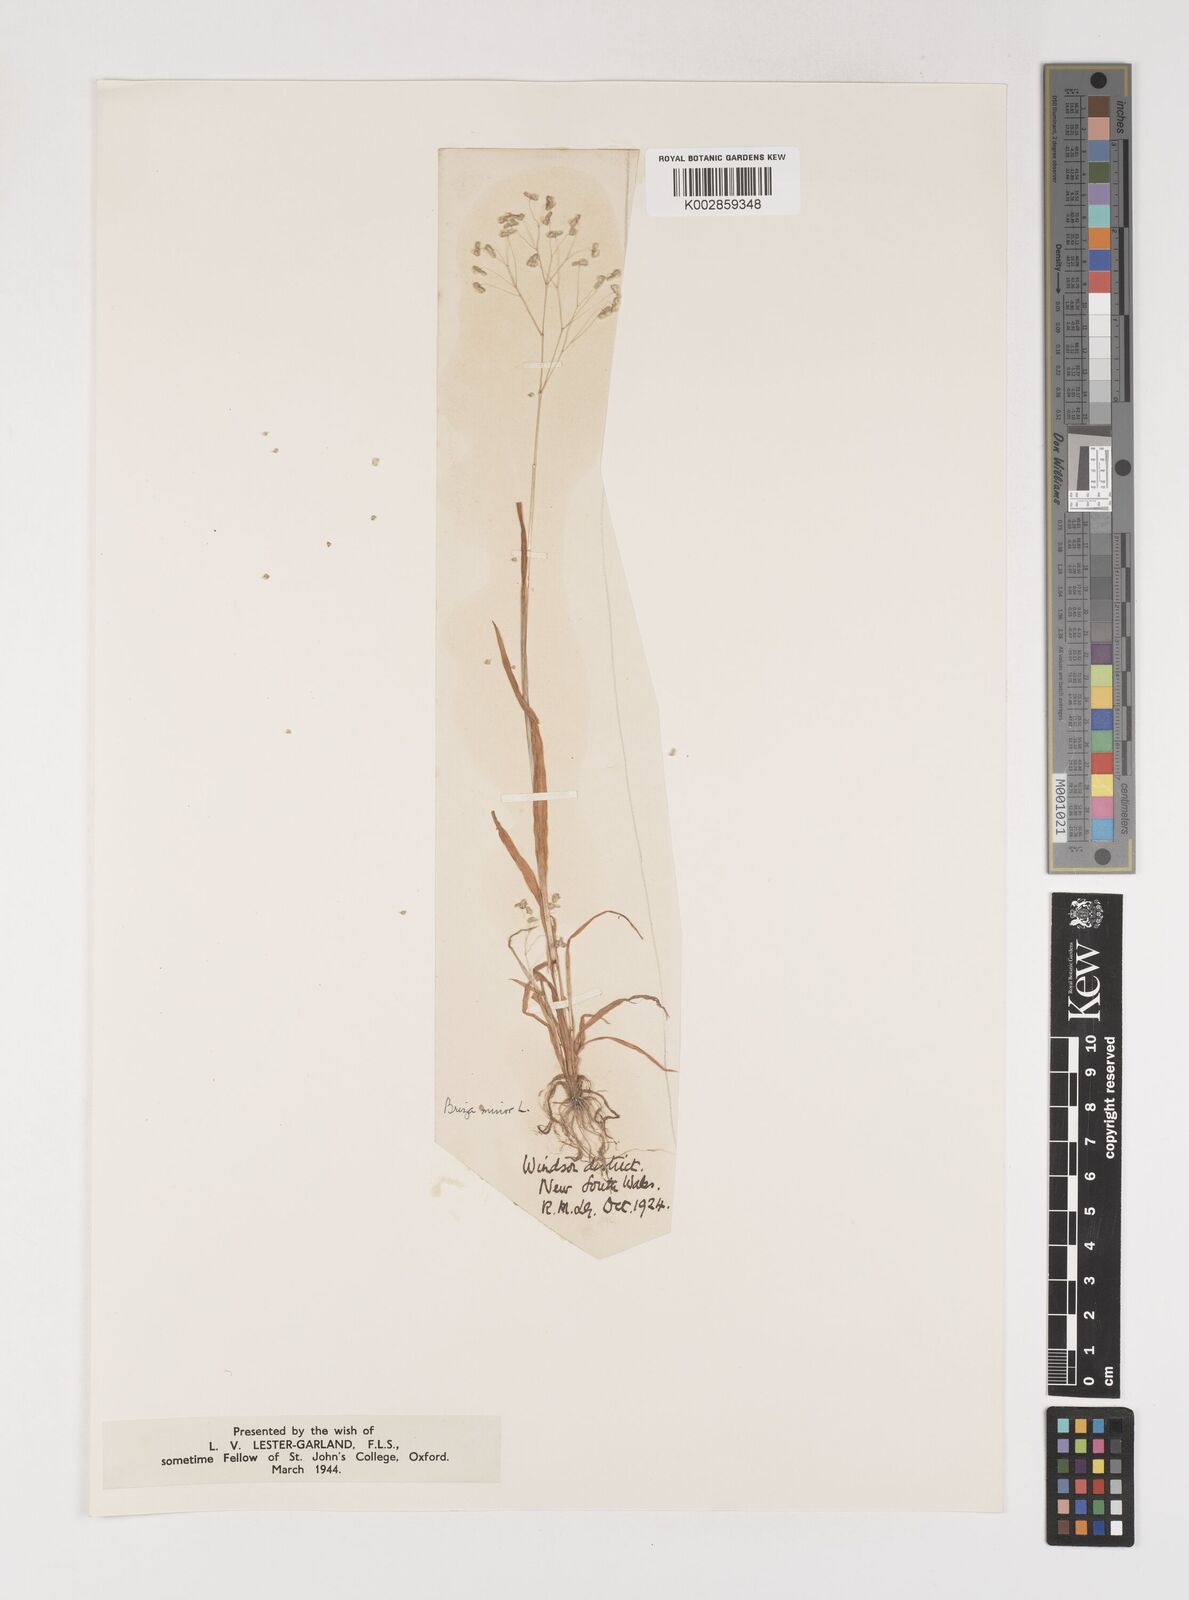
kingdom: Plantae
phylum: Tracheophyta
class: Liliopsida
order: Poales
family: Poaceae
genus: Briza
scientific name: Briza minor
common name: Lesser quaking-grass
